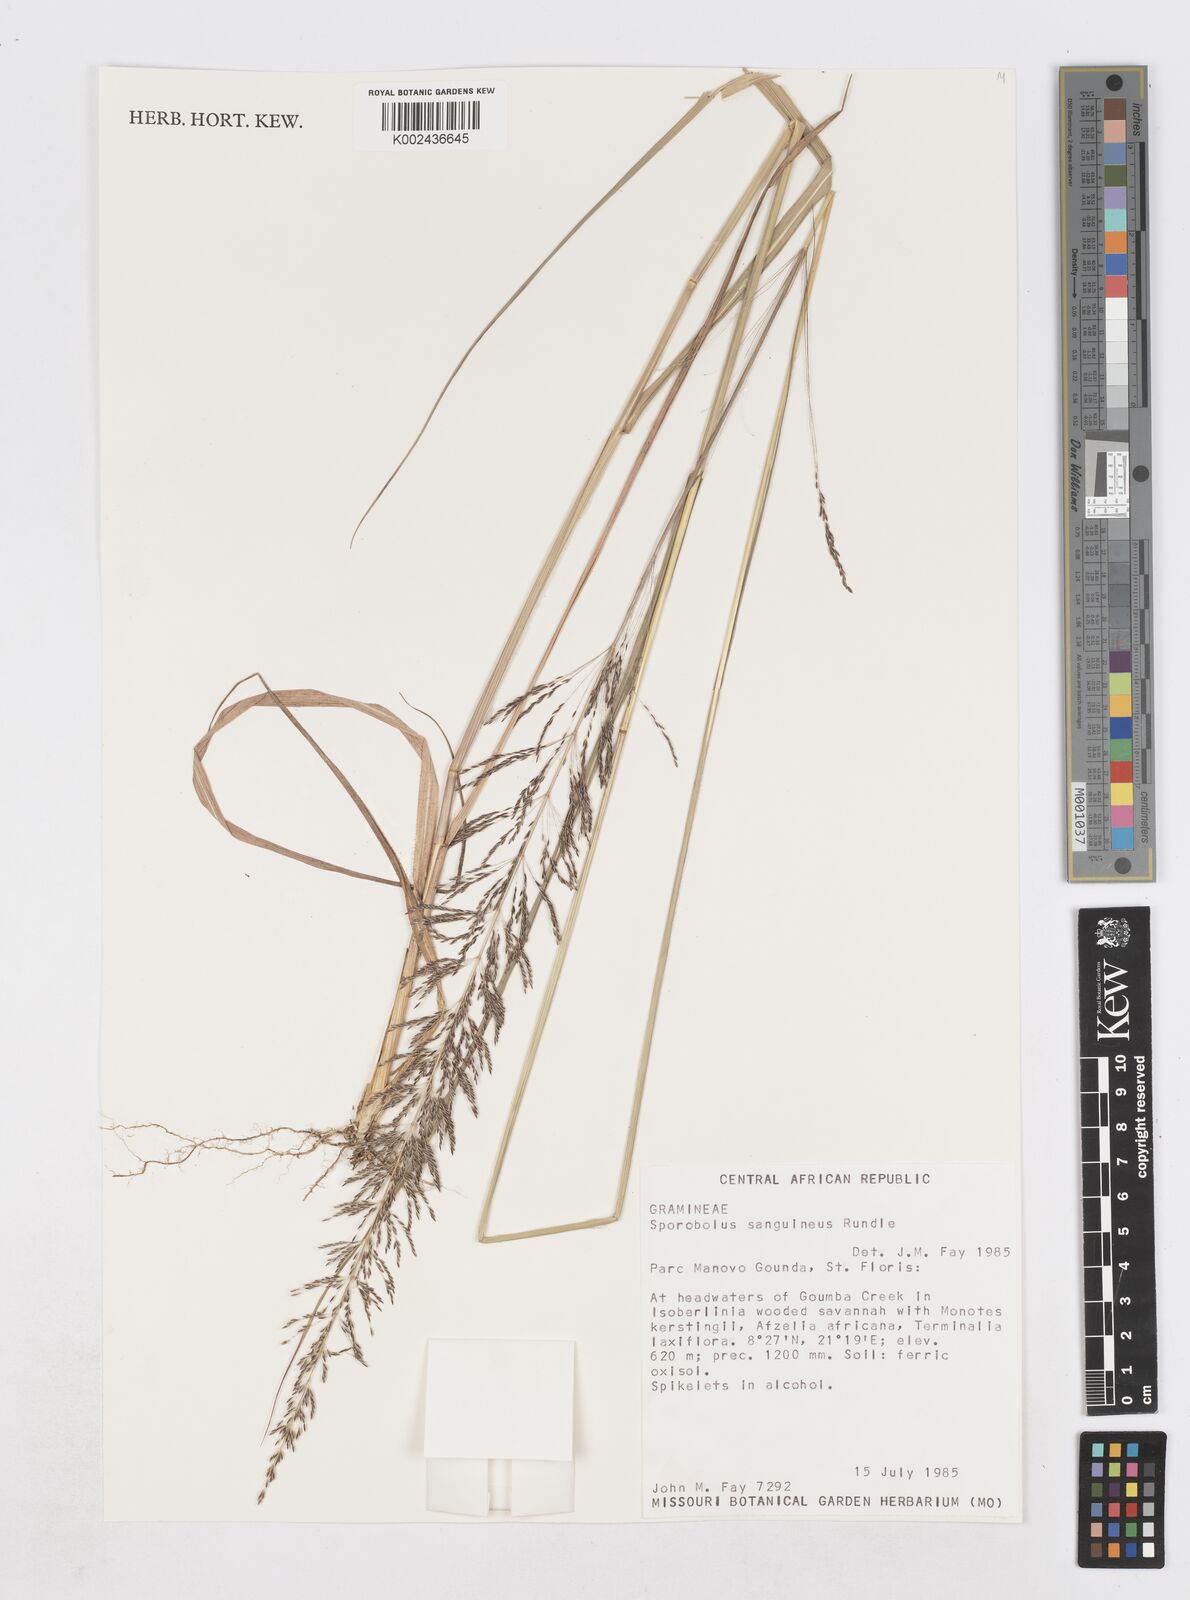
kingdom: Plantae
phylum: Tracheophyta
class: Liliopsida
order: Poales
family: Poaceae
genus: Sporobolus
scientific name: Sporobolus sanguineus
